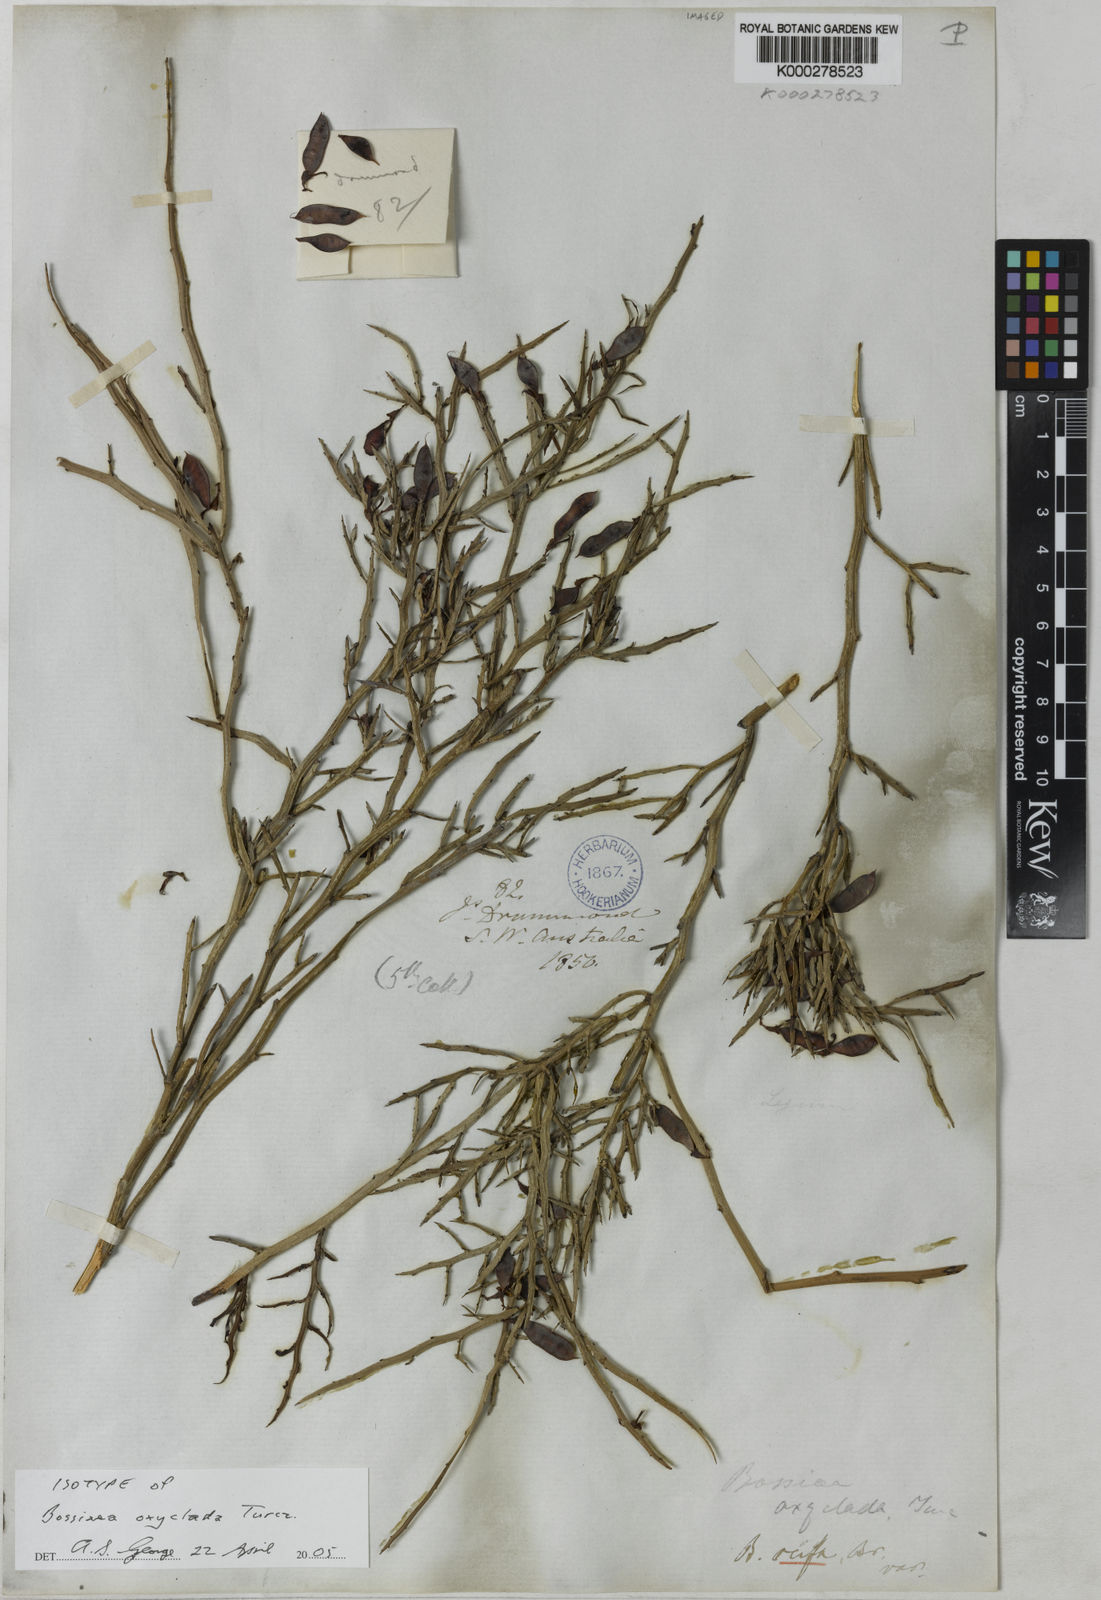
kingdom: Plantae
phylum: Tracheophyta
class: Magnoliopsida
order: Fabales
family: Fabaceae
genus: Bossiaea
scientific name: Bossiaea oxyclada
